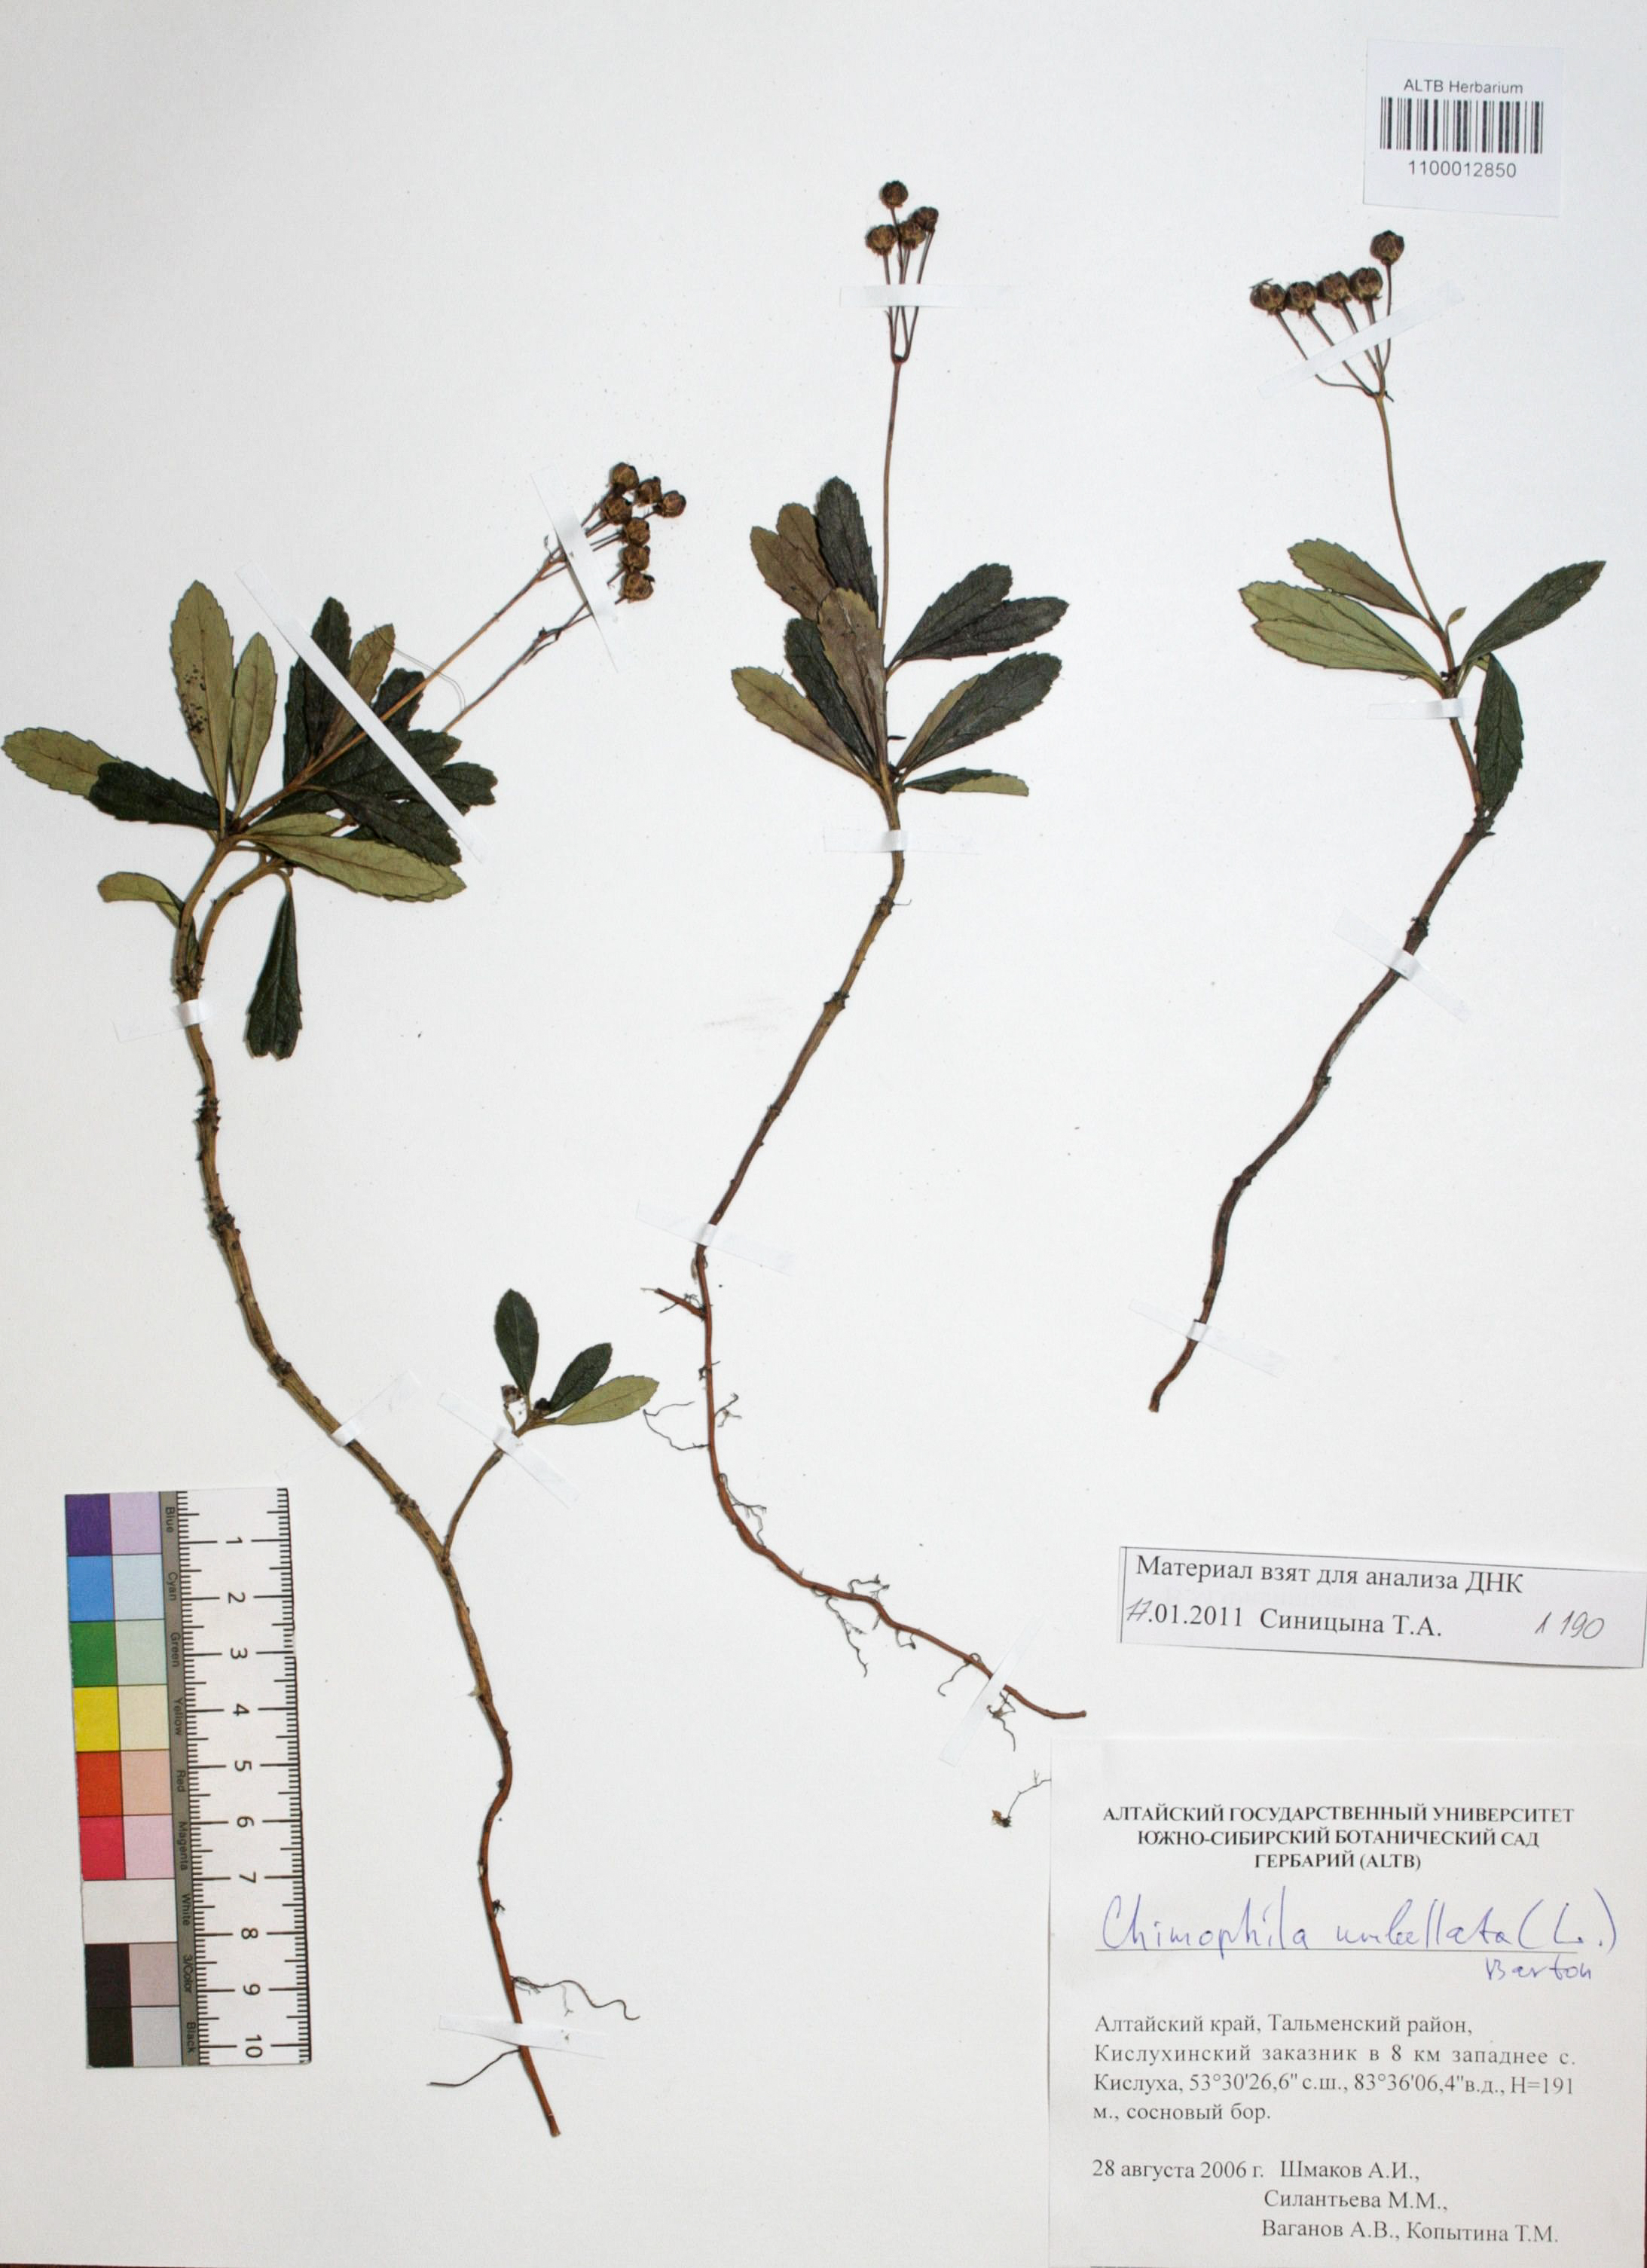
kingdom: Plantae
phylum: Tracheophyta
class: Magnoliopsida
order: Ericales
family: Ericaceae
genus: Chimaphila
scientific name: Chimaphila umbellata
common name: Pipsissewa
